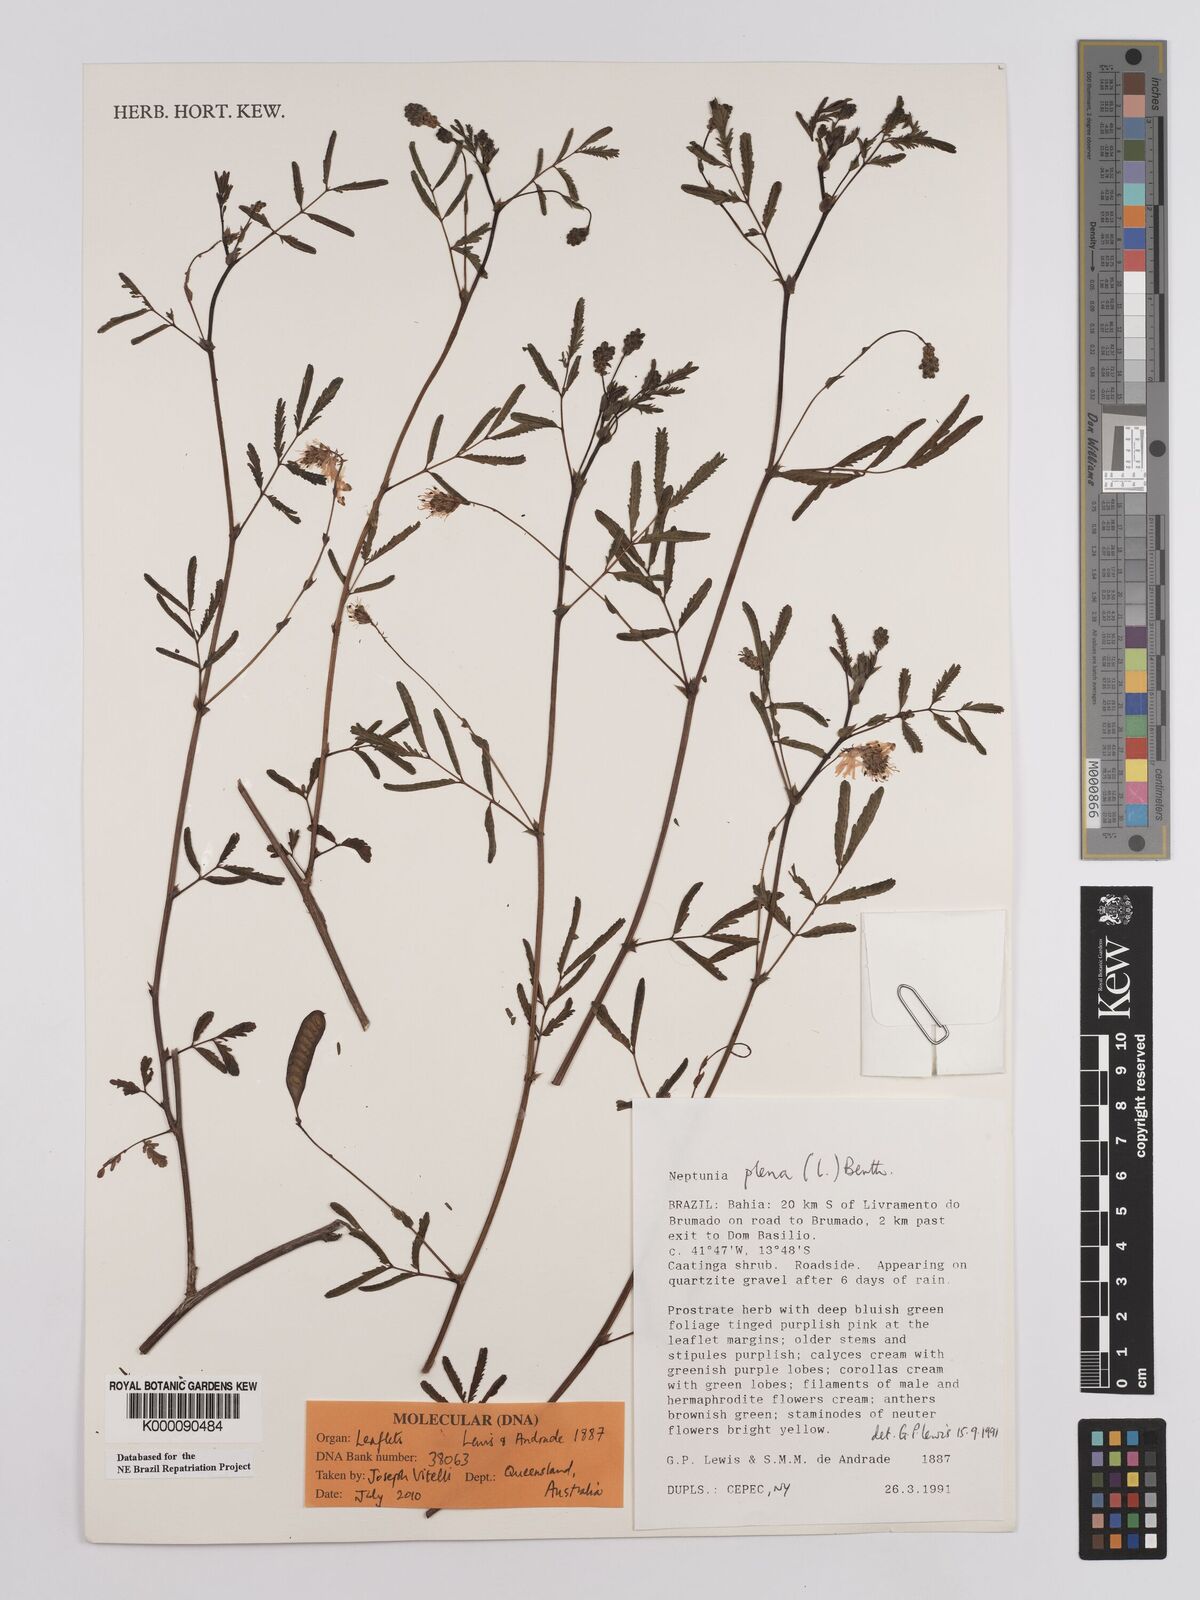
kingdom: Plantae
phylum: Tracheophyta
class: Magnoliopsida
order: Fabales
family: Fabaceae
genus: Neptunia
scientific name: Neptunia plena
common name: Dead and awake
